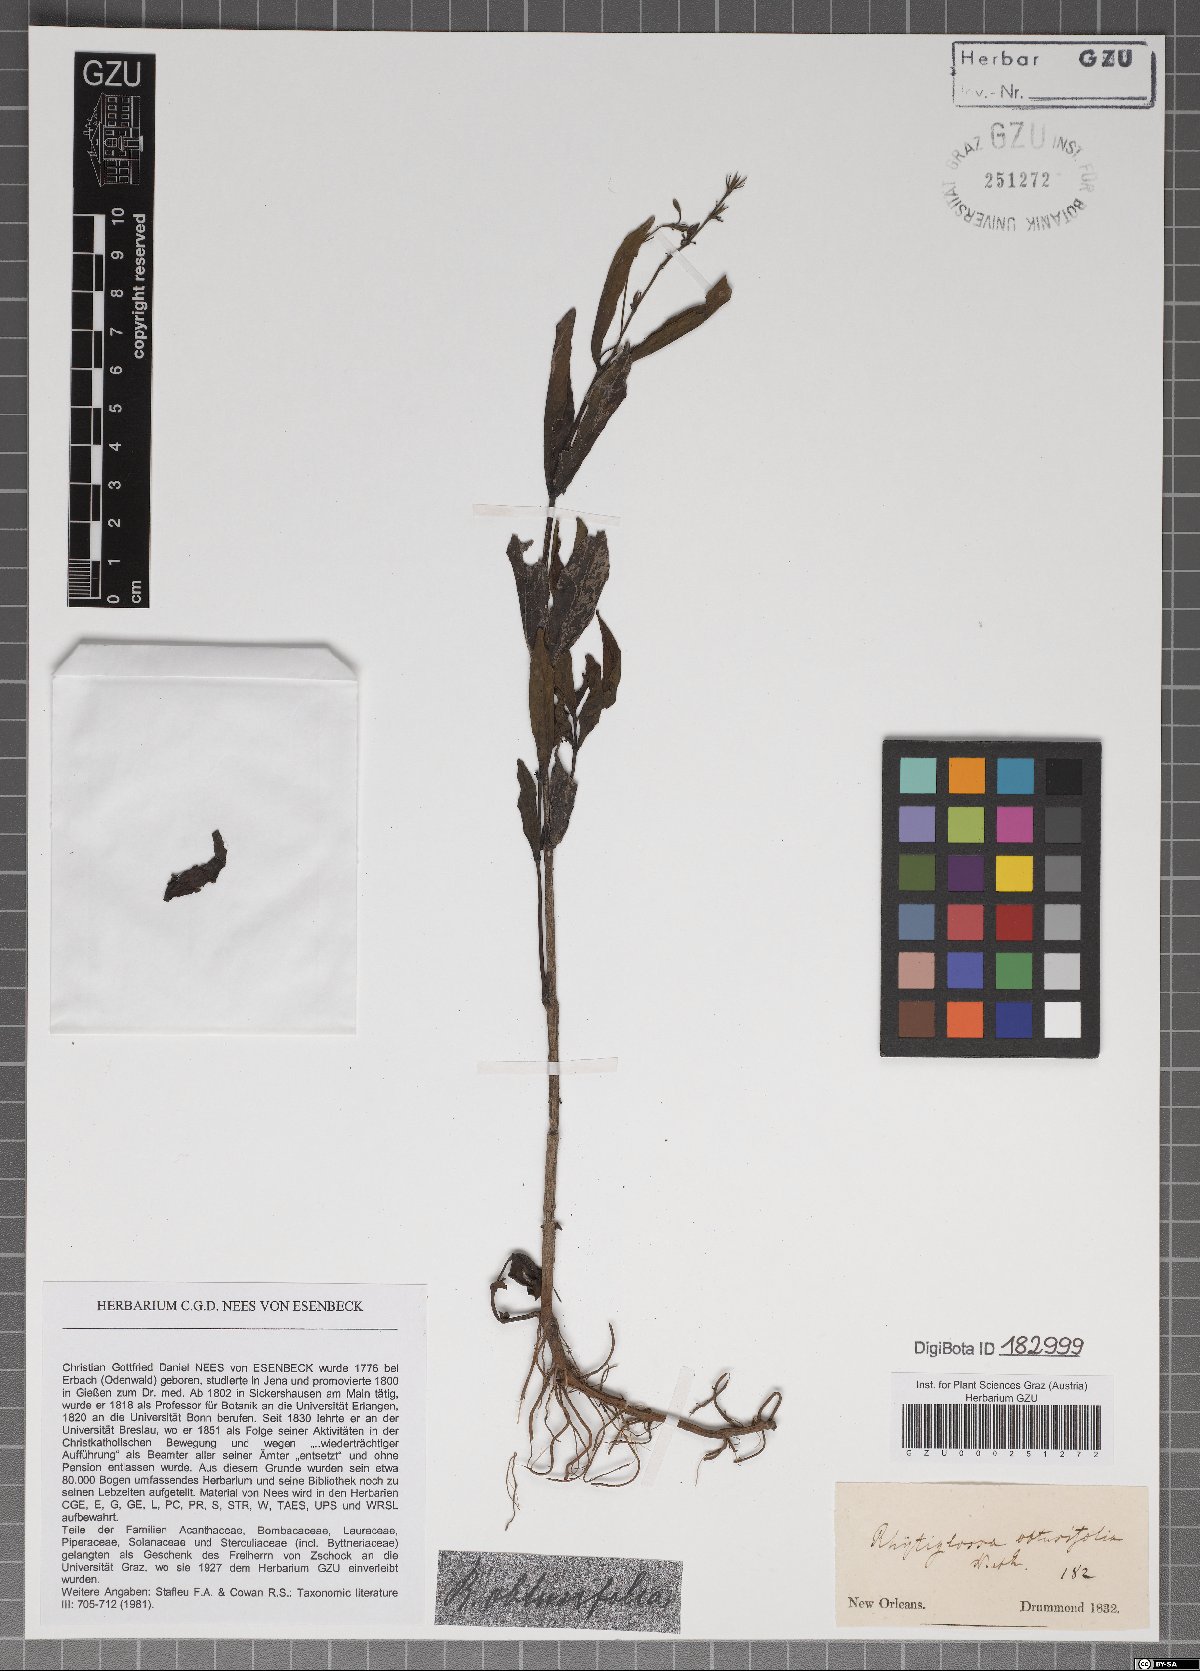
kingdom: Plantae
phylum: Tracheophyta
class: Magnoliopsida
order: Lamiales
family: Acanthaceae
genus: Dianthera
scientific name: Dianthera laevilinguis
